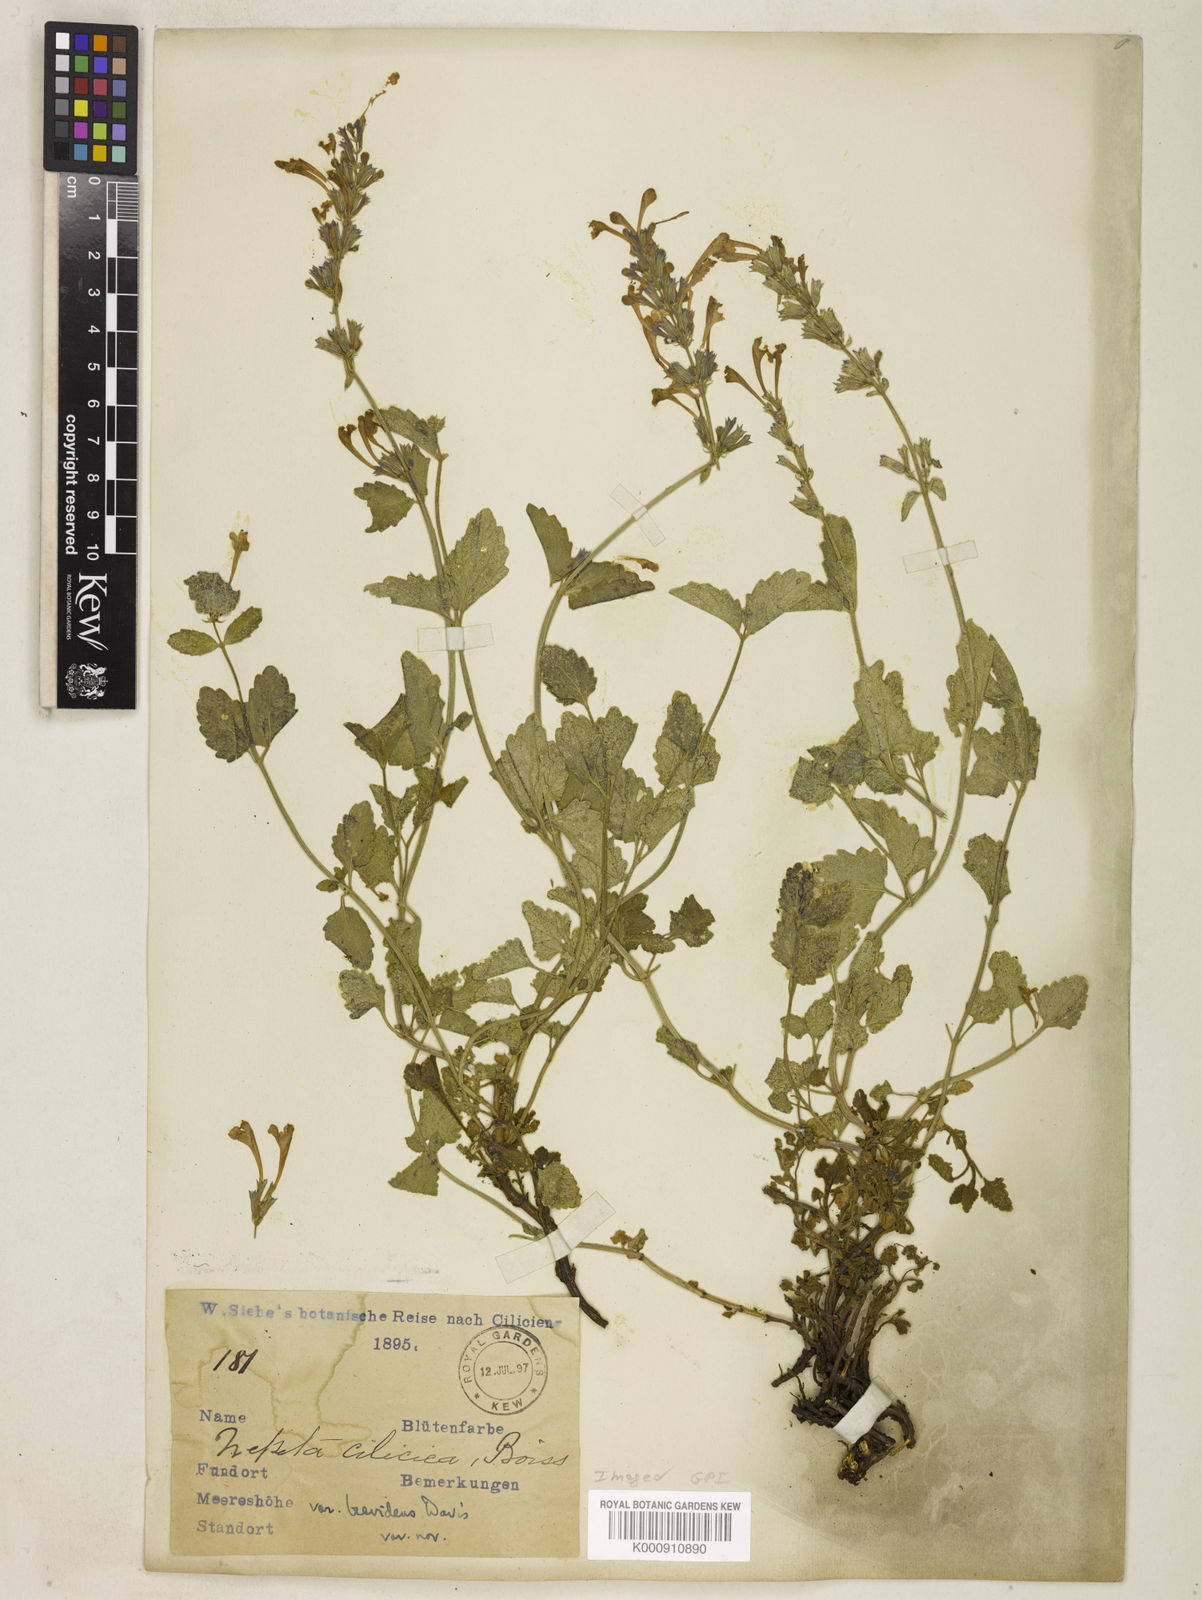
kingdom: Plantae
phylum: Tracheophyta
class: Magnoliopsida
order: Lamiales
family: Lamiaceae
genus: Nepeta
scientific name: Nepeta
